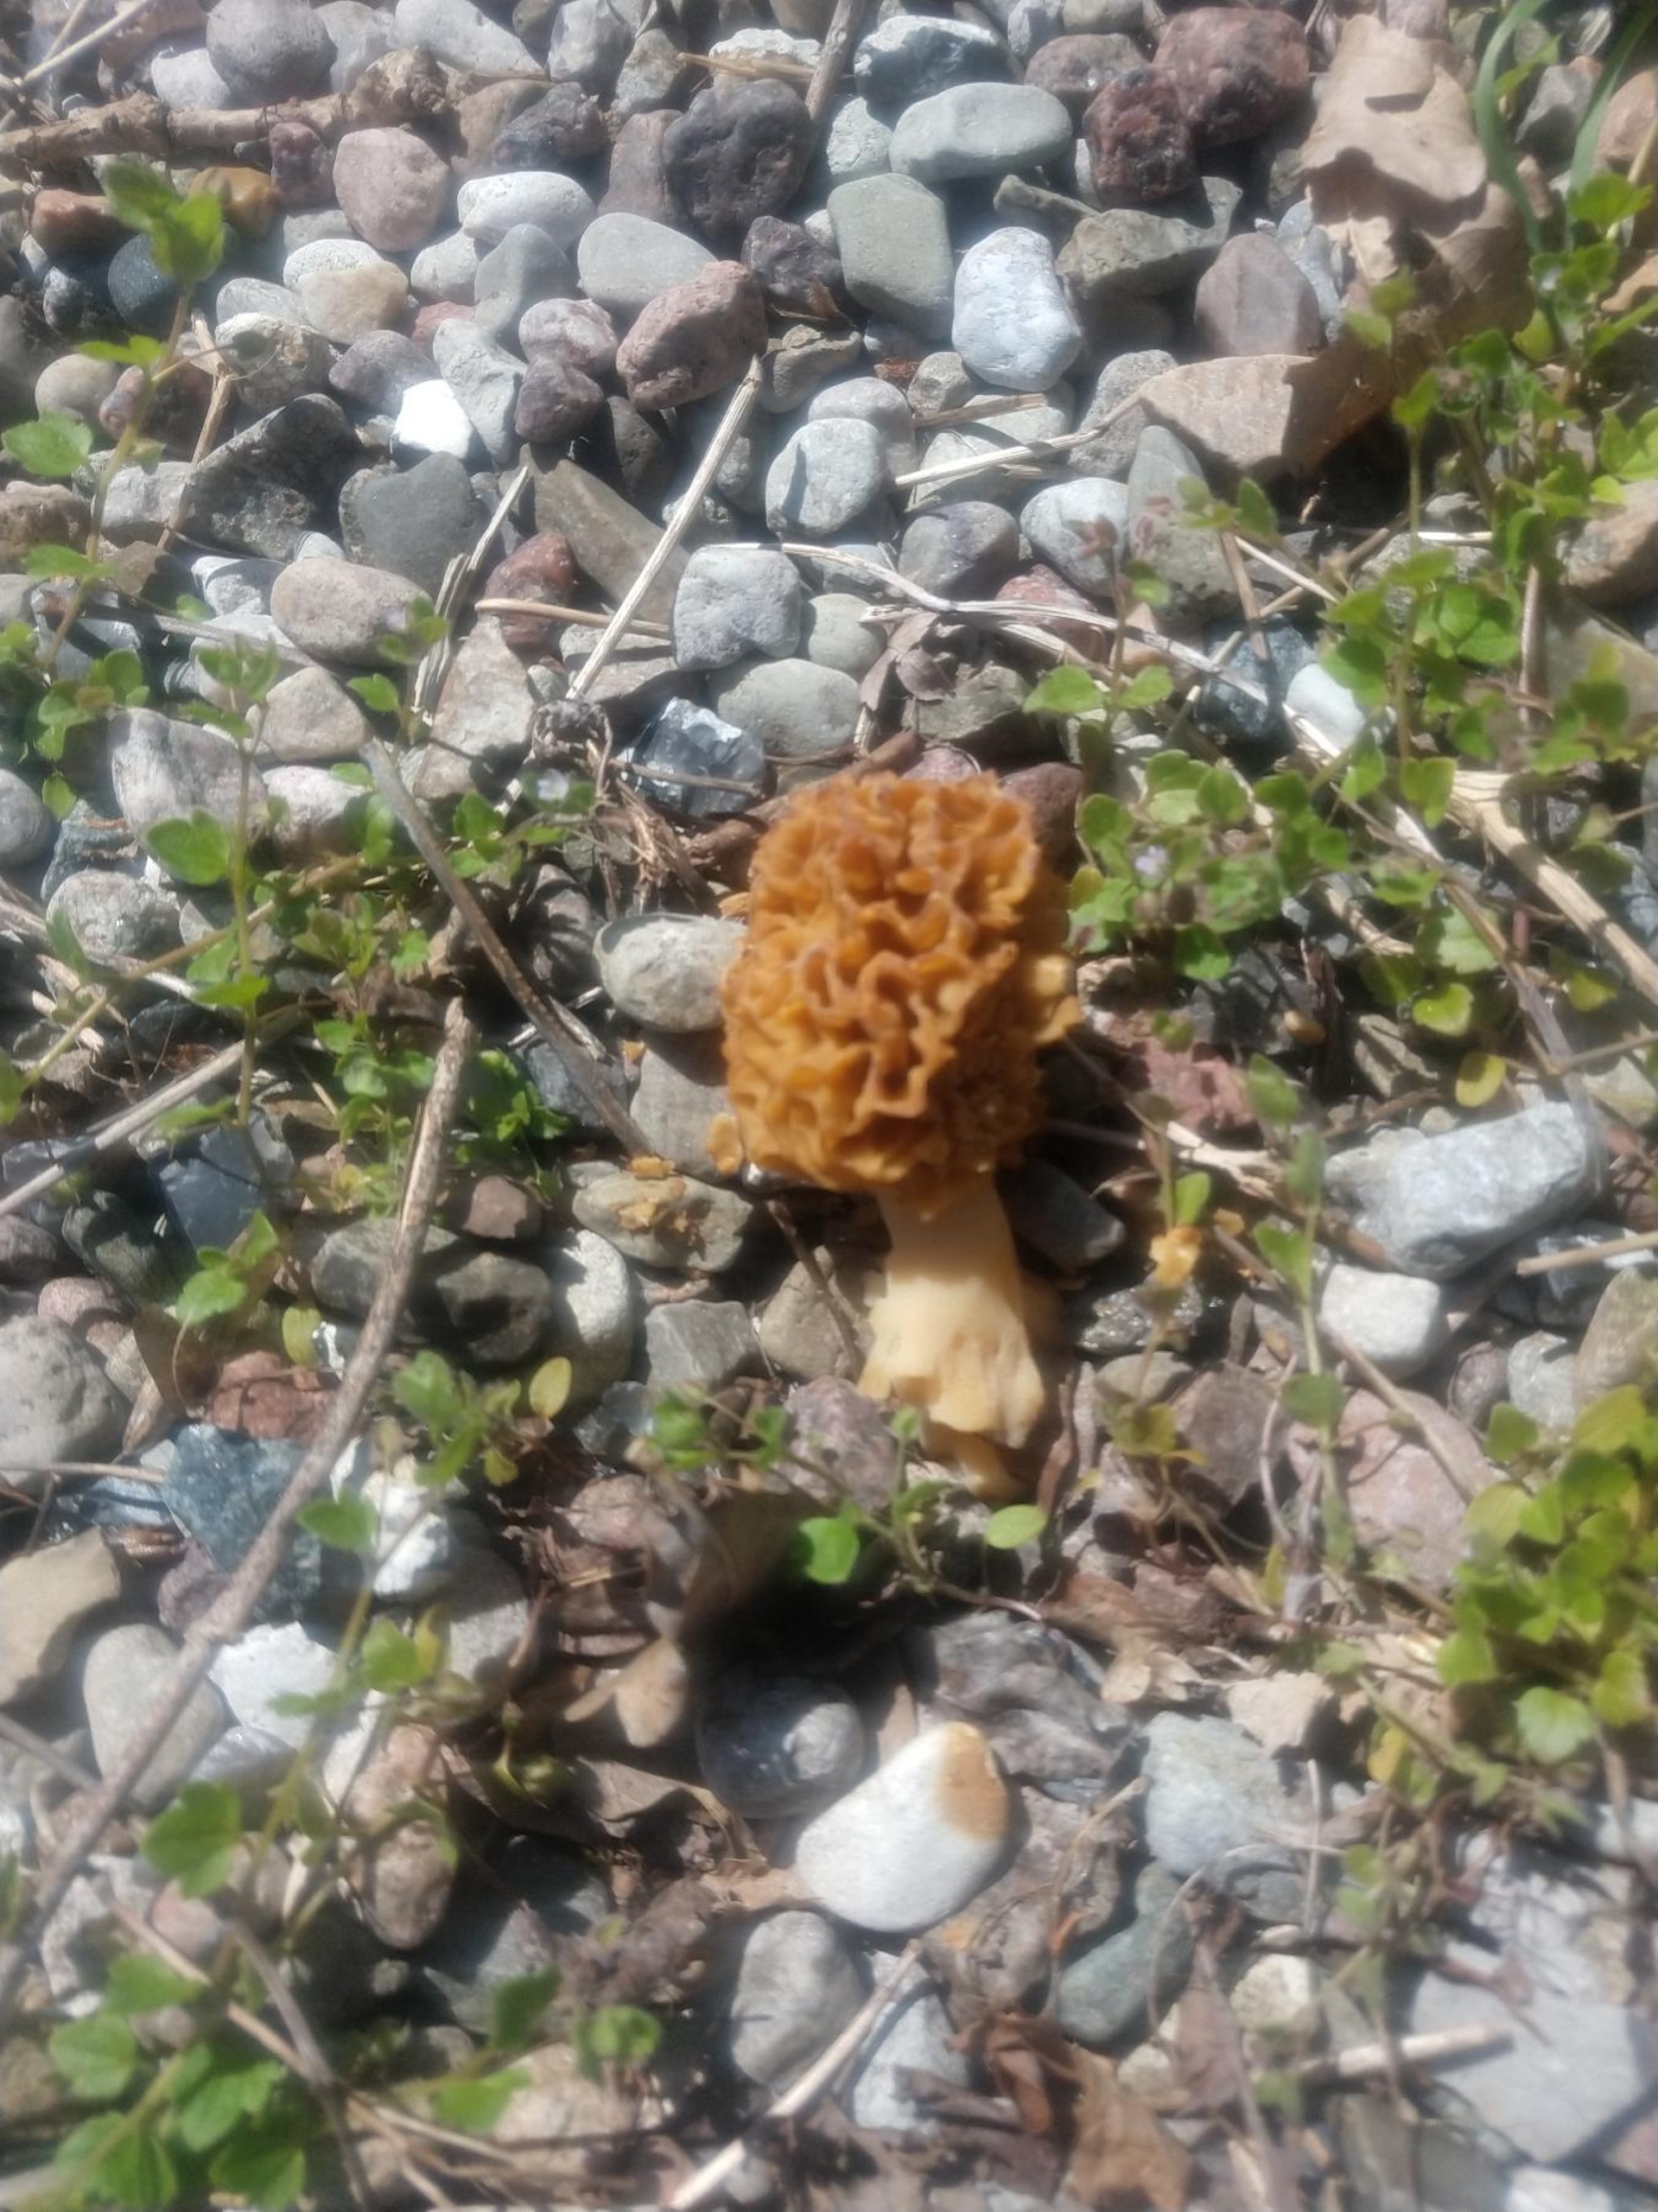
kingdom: Fungi
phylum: Ascomycota
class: Pezizomycetes
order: Pezizales
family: Morchellaceae
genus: Morchella
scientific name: Morchella esculenta
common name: Spiselig morkel
